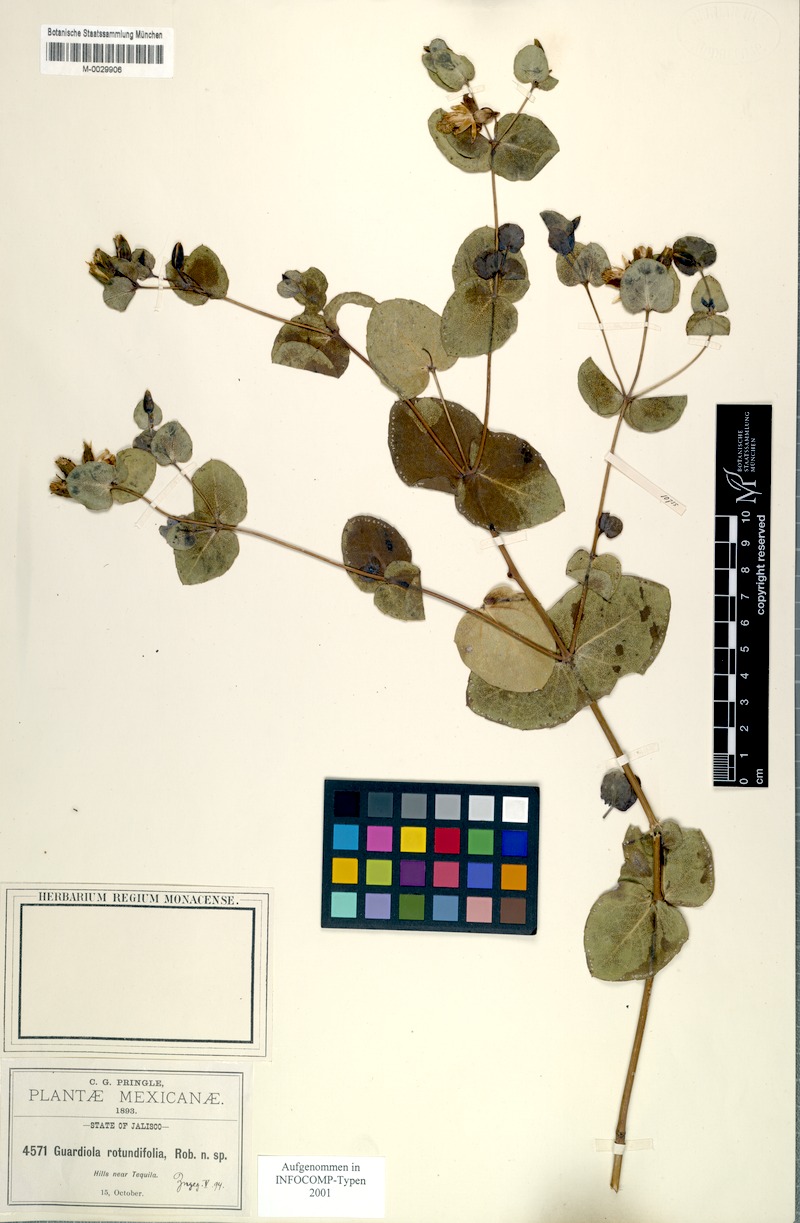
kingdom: Plantae
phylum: Tracheophyta
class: Magnoliopsida
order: Asterales
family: Asteraceae
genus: Guardiola
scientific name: Guardiola rotundifolia
